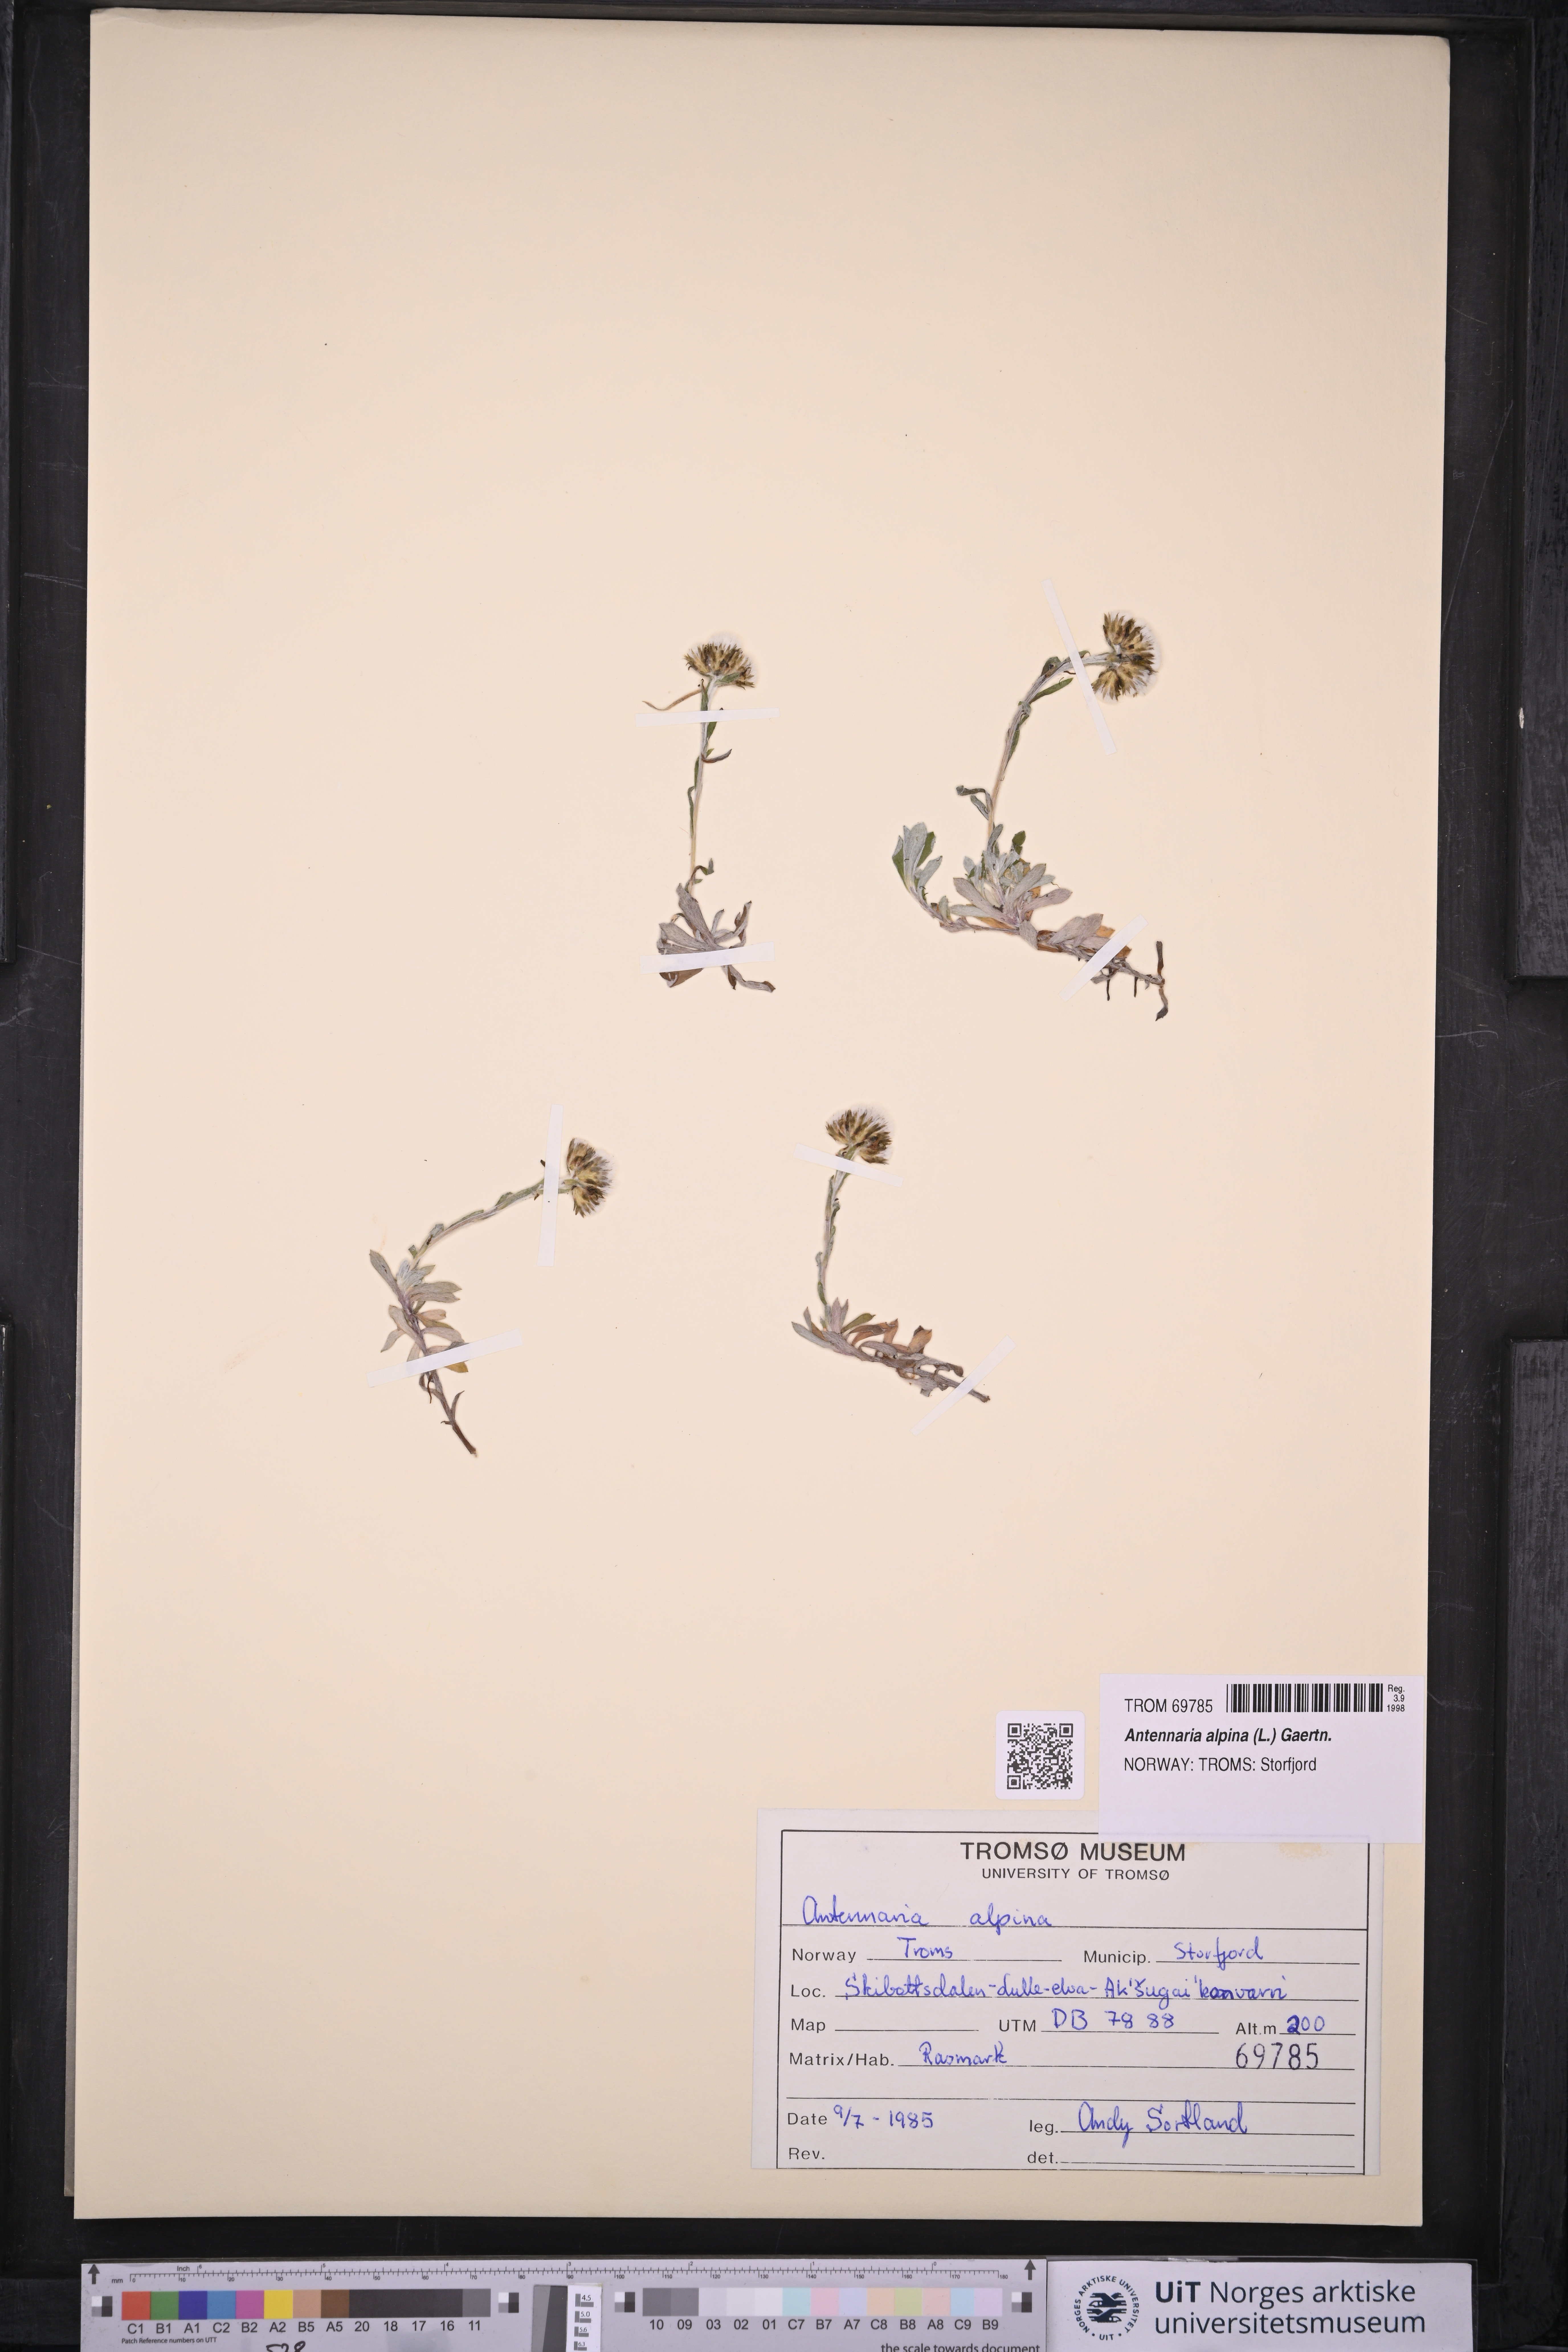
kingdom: Plantae
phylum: Tracheophyta
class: Magnoliopsida
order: Asterales
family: Asteraceae
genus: Antennaria
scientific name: Antennaria alpina
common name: Alpine pussytoes
